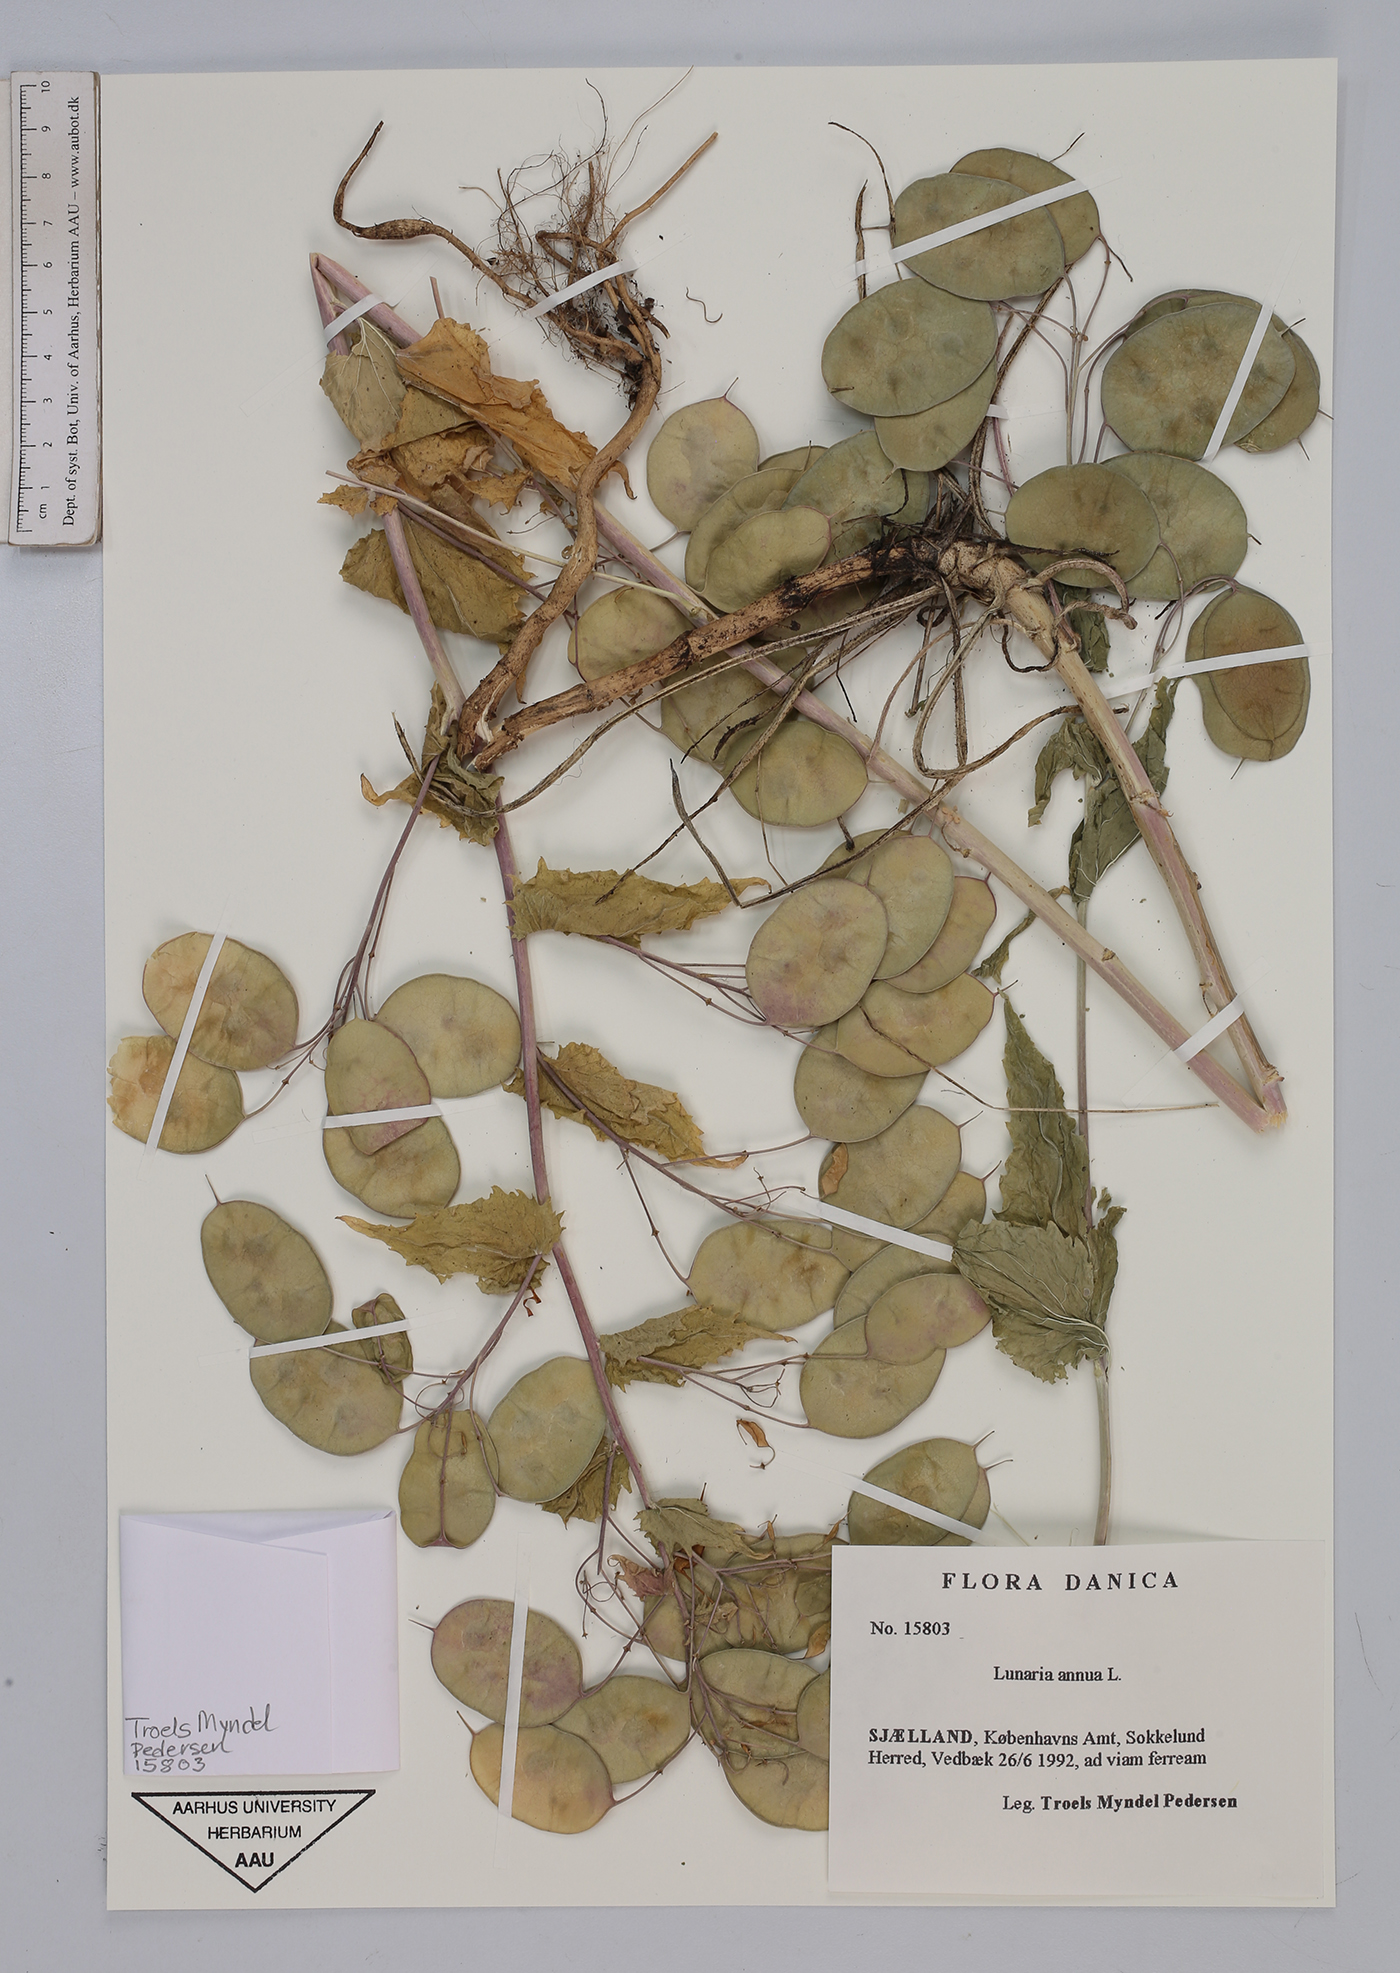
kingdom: Plantae
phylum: Tracheophyta
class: Magnoliopsida
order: Brassicales
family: Brassicaceae
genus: Lunaria
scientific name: Lunaria annua
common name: Honesty
